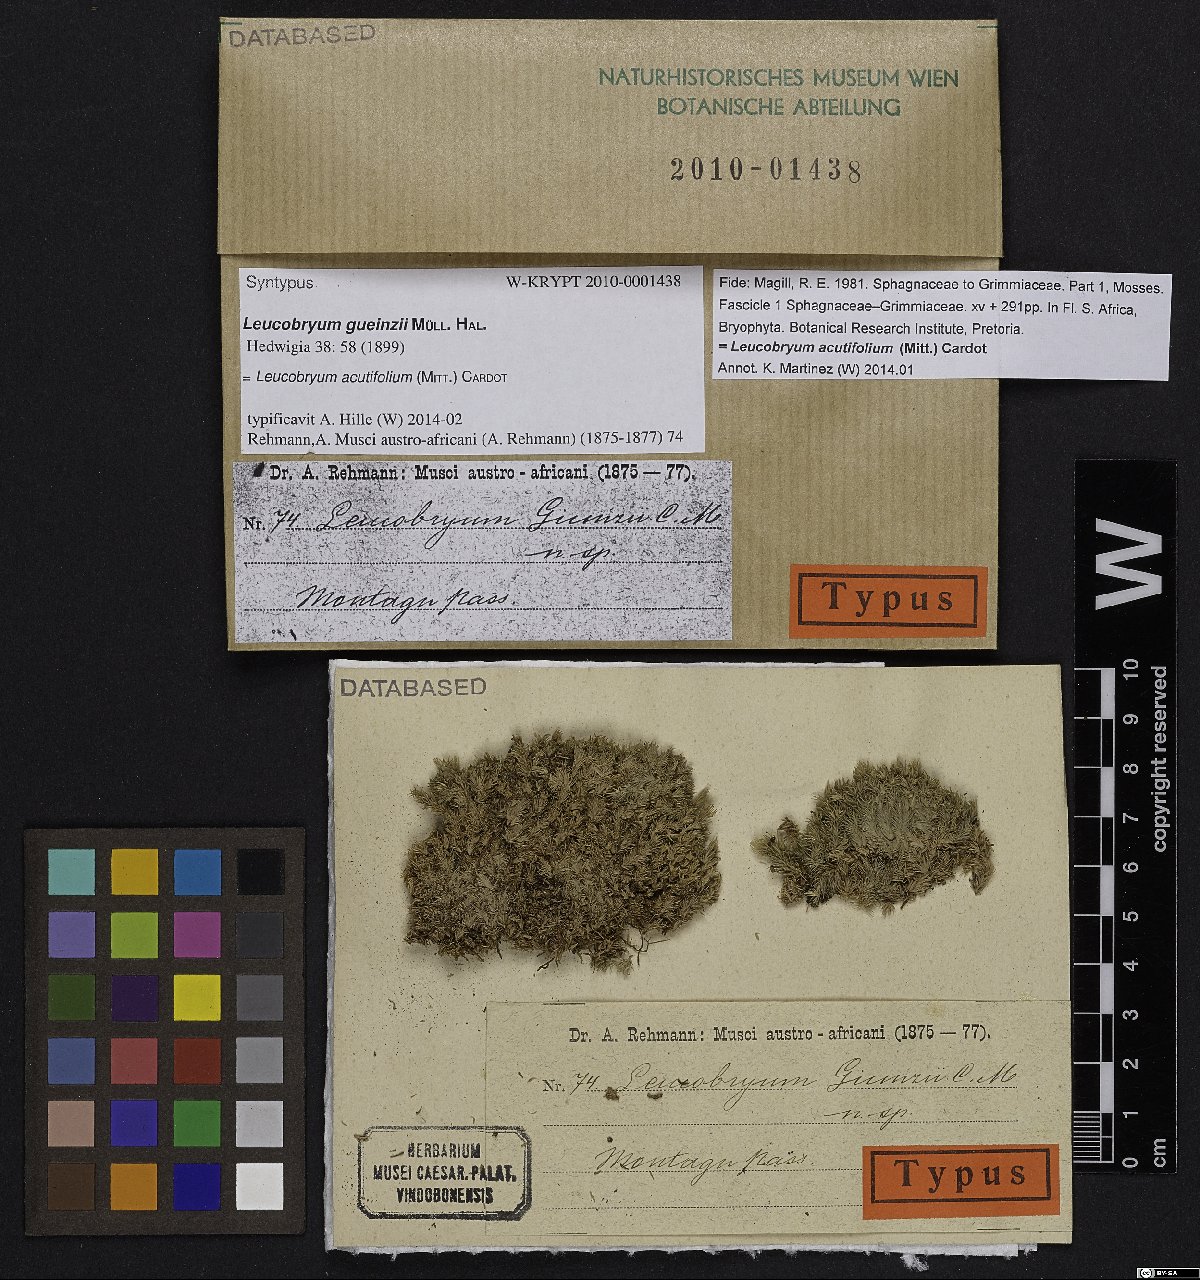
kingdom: Plantae
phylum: Bryophyta
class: Bryopsida
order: Dicranales
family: Leucobryaceae
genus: Leucobryum
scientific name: Leucobryum acutifolium
